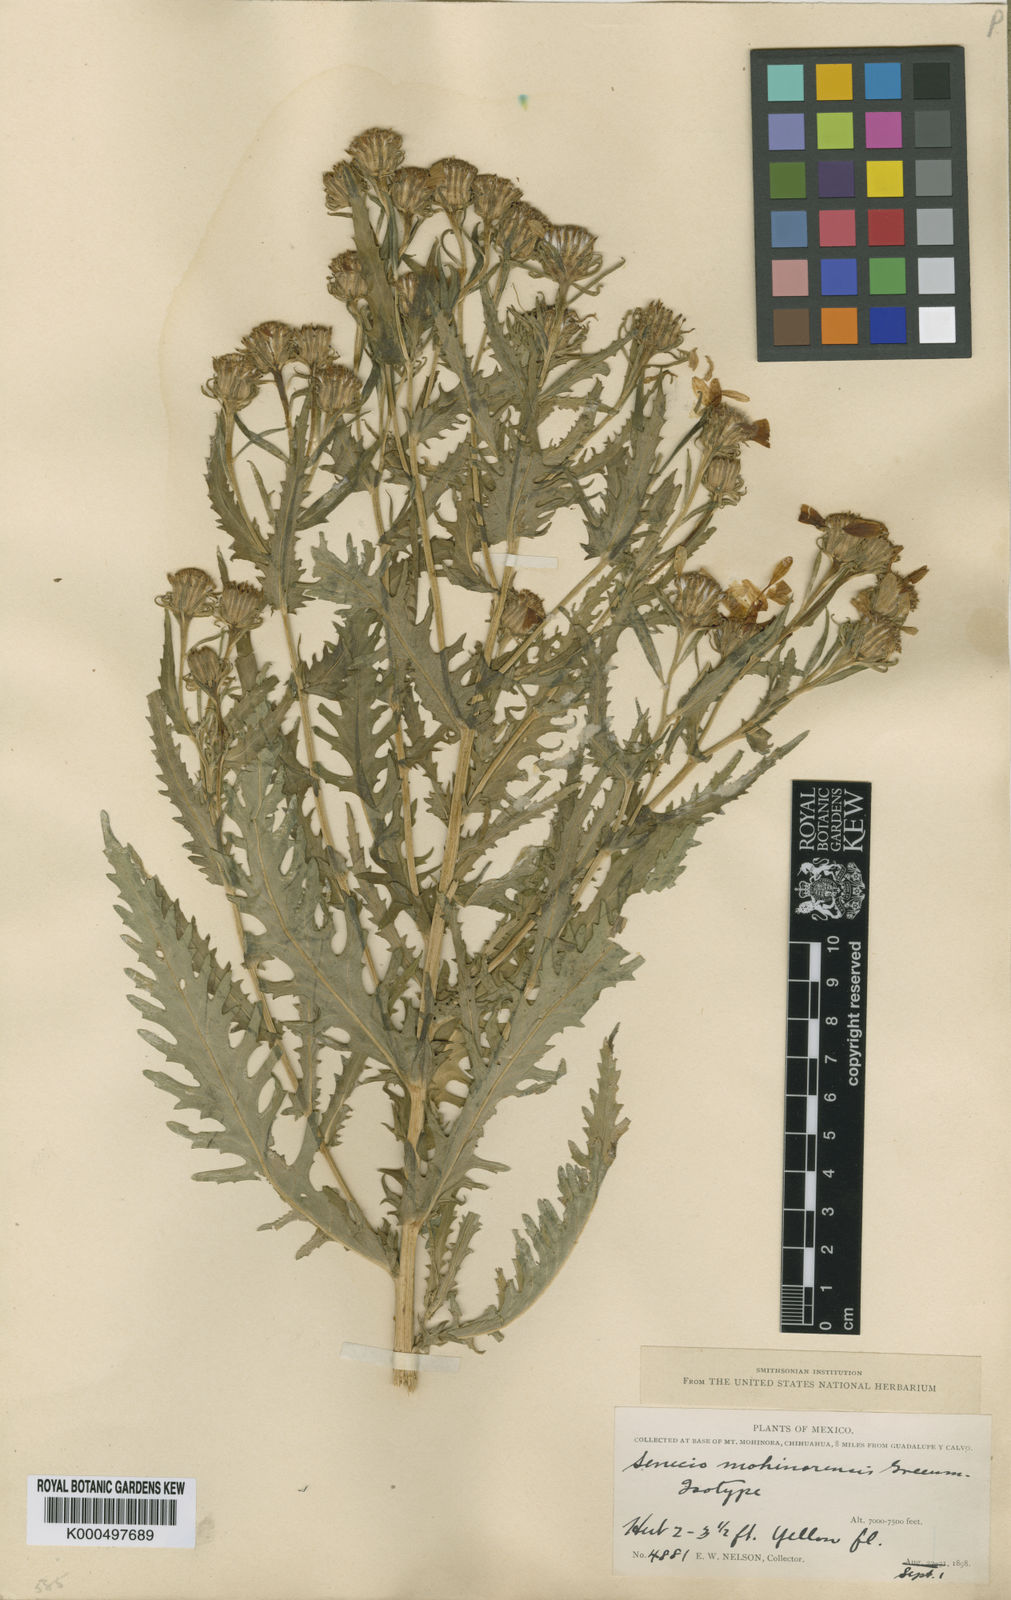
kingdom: Plantae
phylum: Tracheophyta
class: Magnoliopsida
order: Asterales
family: Asteraceae
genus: Senecio
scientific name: Senecio mohinorensis
